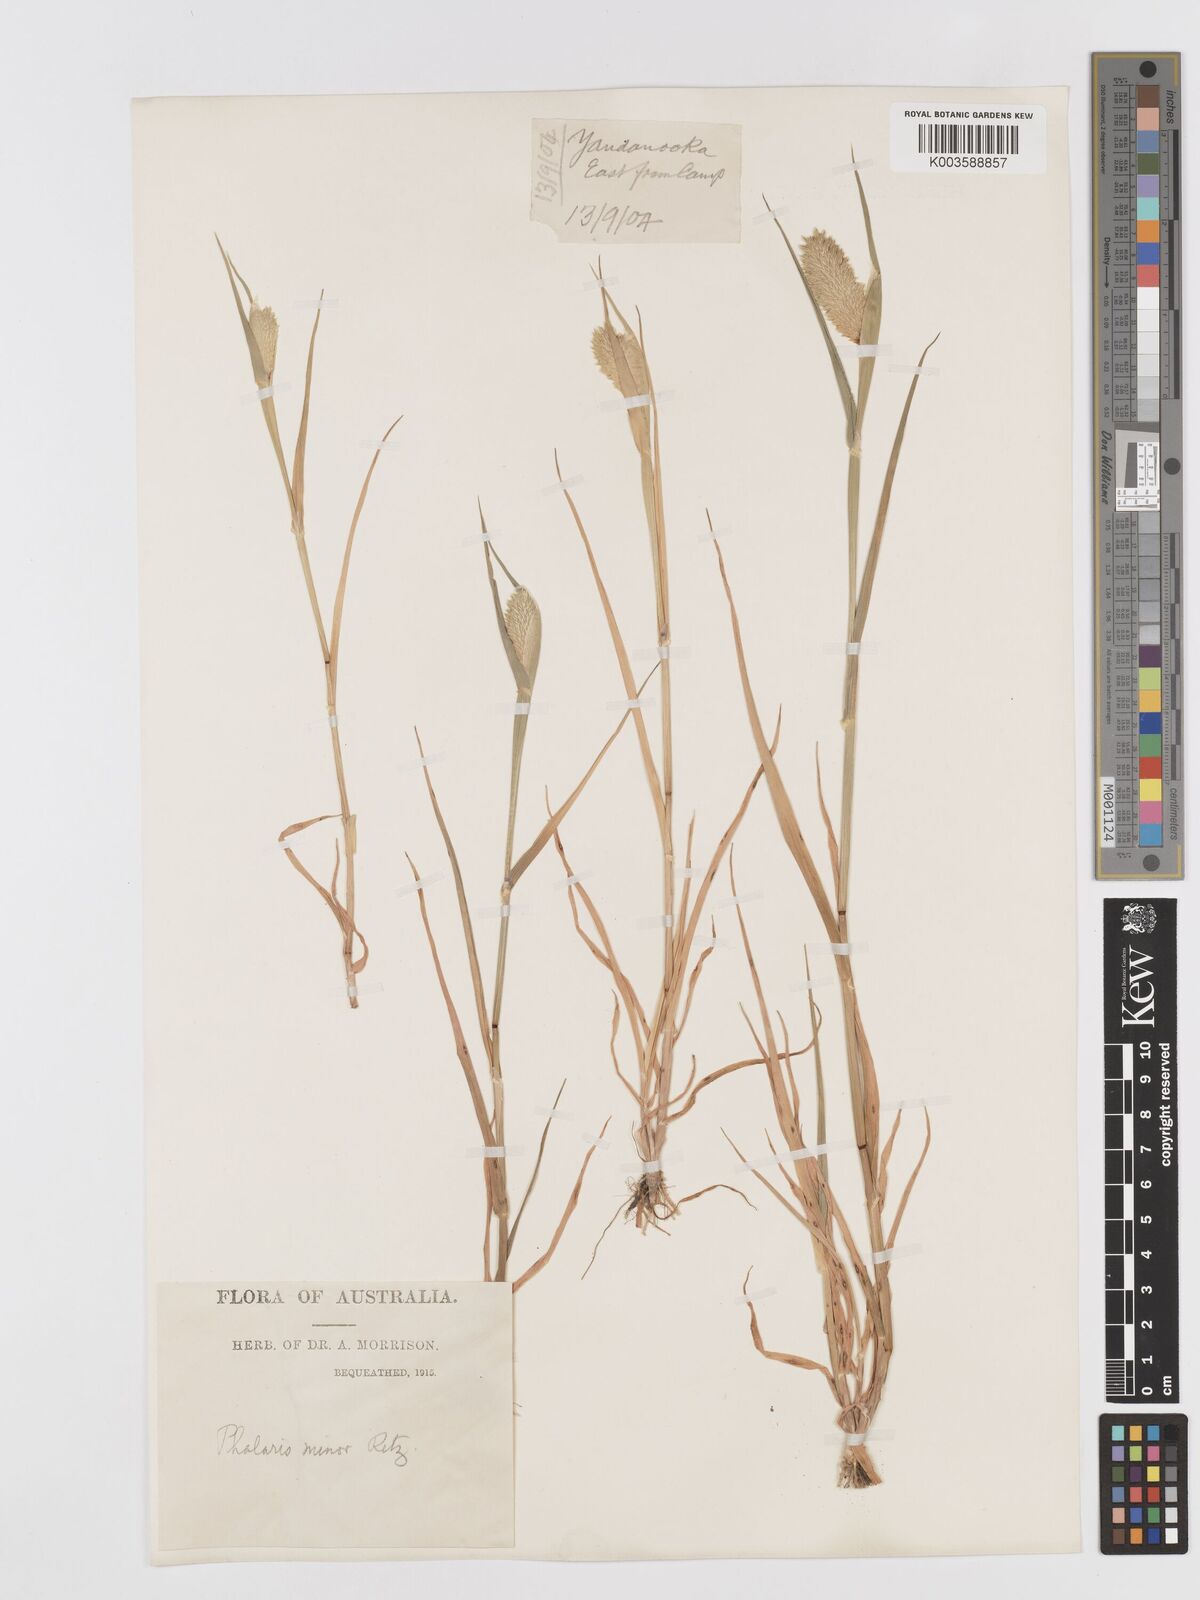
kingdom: Plantae
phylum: Tracheophyta
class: Liliopsida
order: Poales
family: Poaceae
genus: Phalaris
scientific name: Phalaris minor
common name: Littleseed canarygrass
